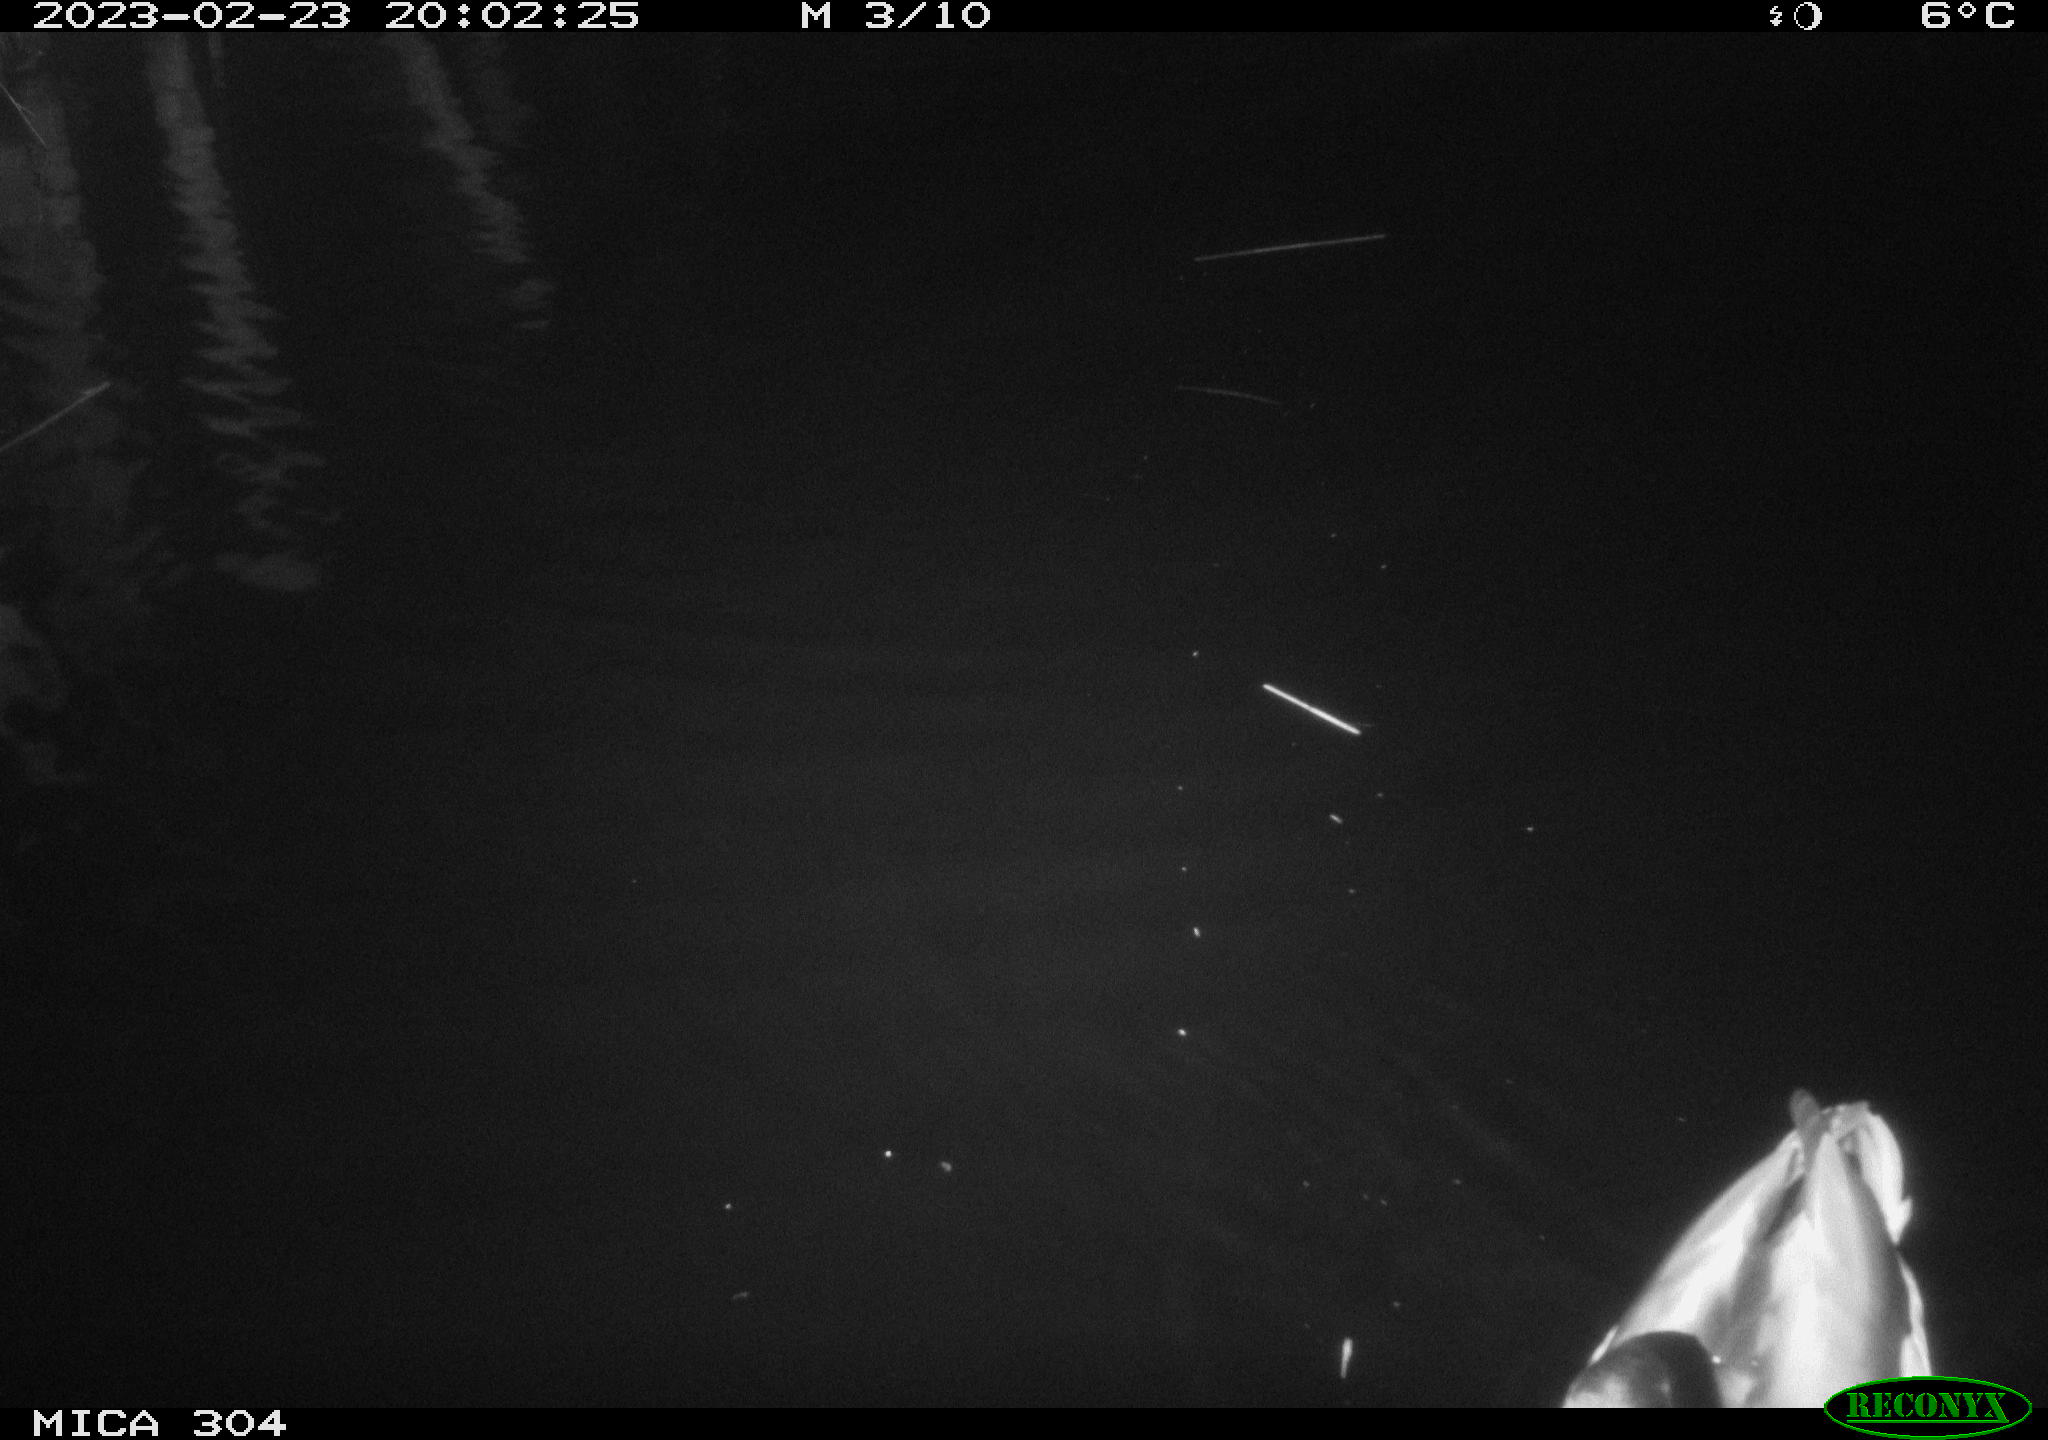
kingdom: Animalia
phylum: Chordata
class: Aves
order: Anseriformes
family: Anatidae
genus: Anas
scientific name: Anas
